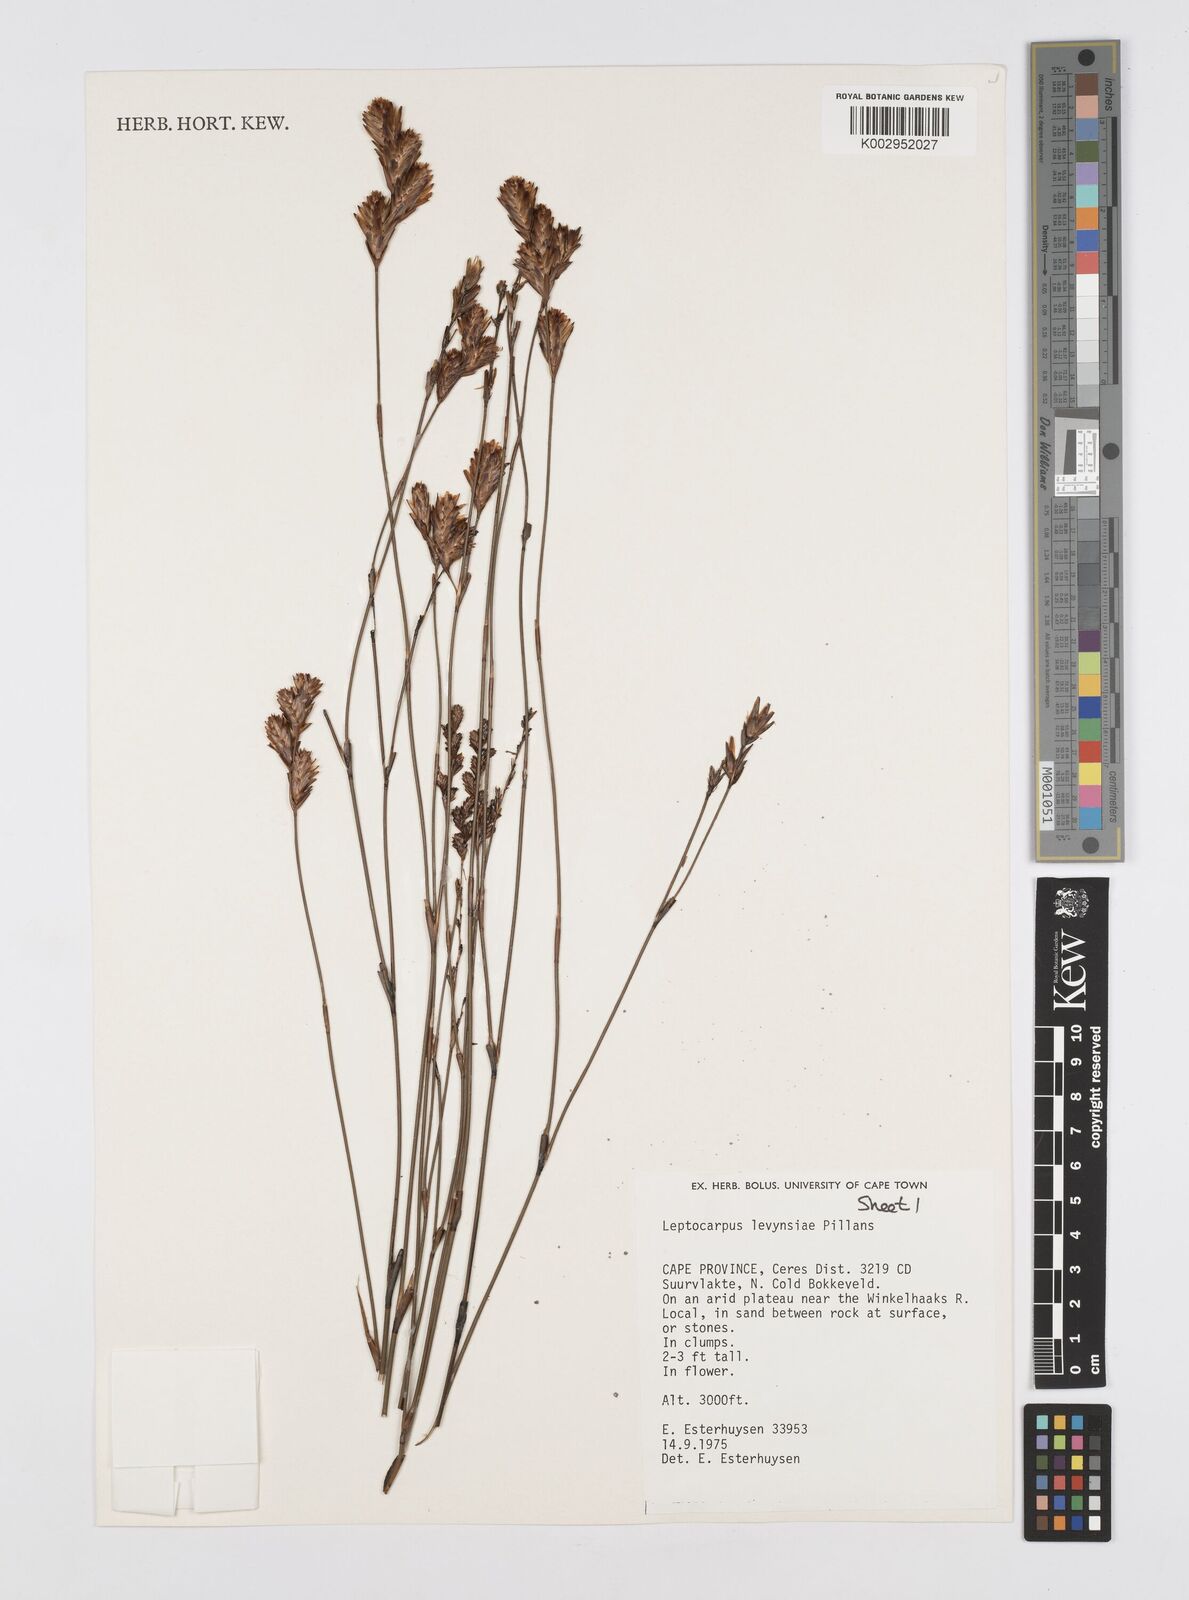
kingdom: Plantae
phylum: Tracheophyta
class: Liliopsida
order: Poales
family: Restionaceae
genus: Restio
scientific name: Restio levynsiae
